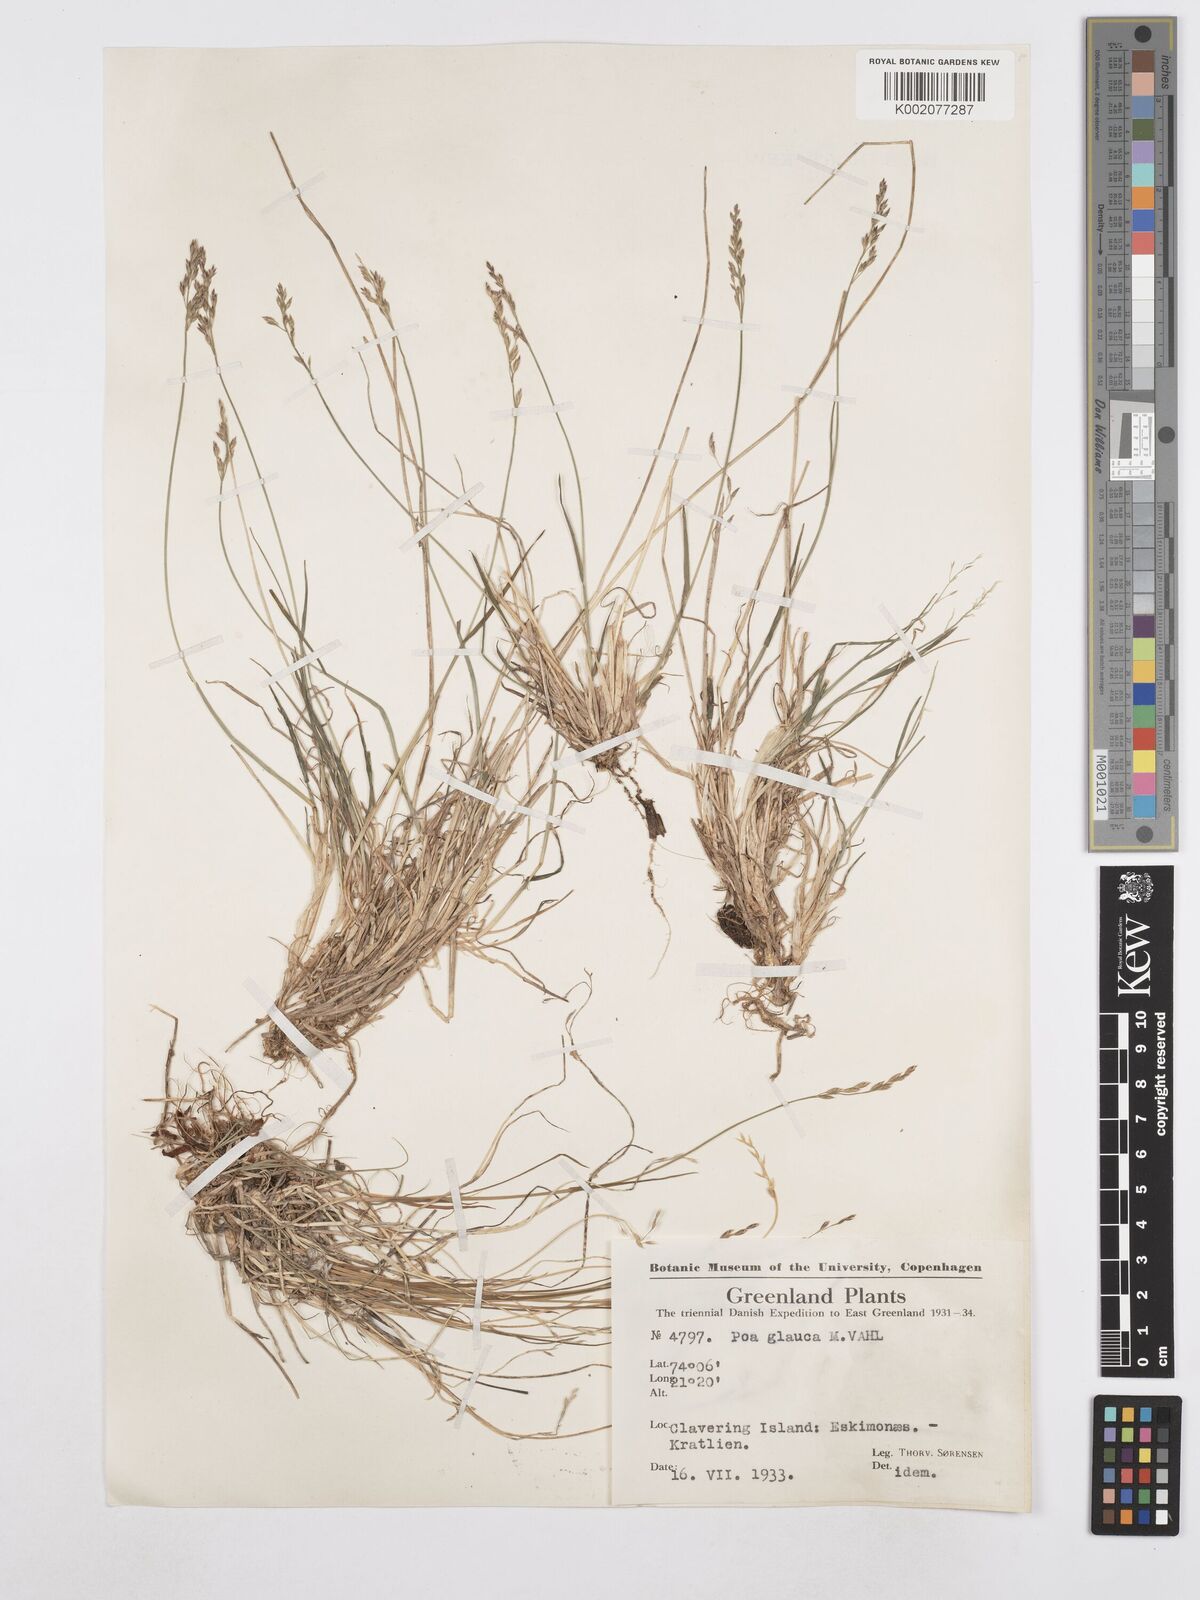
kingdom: Plantae
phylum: Tracheophyta
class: Liliopsida
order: Poales
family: Poaceae
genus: Poa
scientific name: Poa glauca
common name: Glaucous bluegrass
